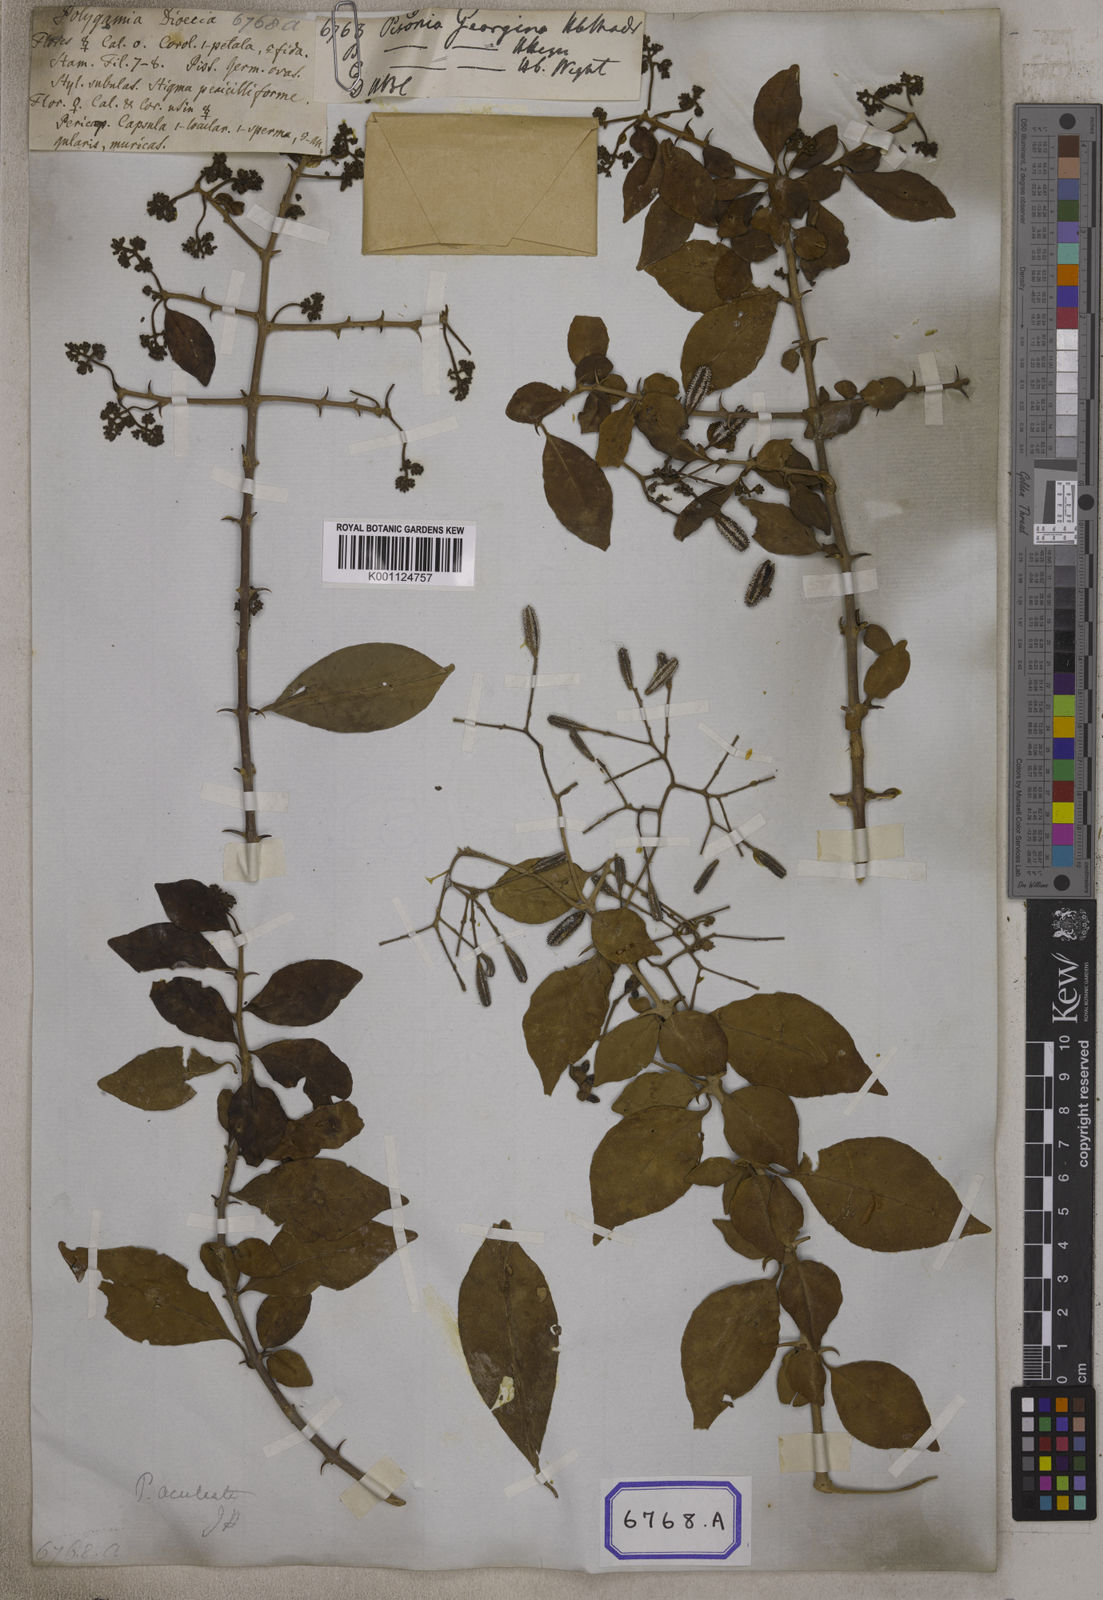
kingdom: Plantae
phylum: Tracheophyta
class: Magnoliopsida
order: Caryophyllales
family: Nyctaginaceae
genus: Pisonia
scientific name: Pisonia aculeata
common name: Cockspur vine
